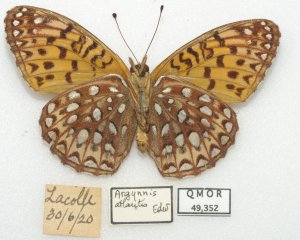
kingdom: Animalia
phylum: Arthropoda
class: Insecta
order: Lepidoptera
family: Nymphalidae
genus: Speyeria
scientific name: Speyeria atlantis
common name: Atlantis Fritillary
